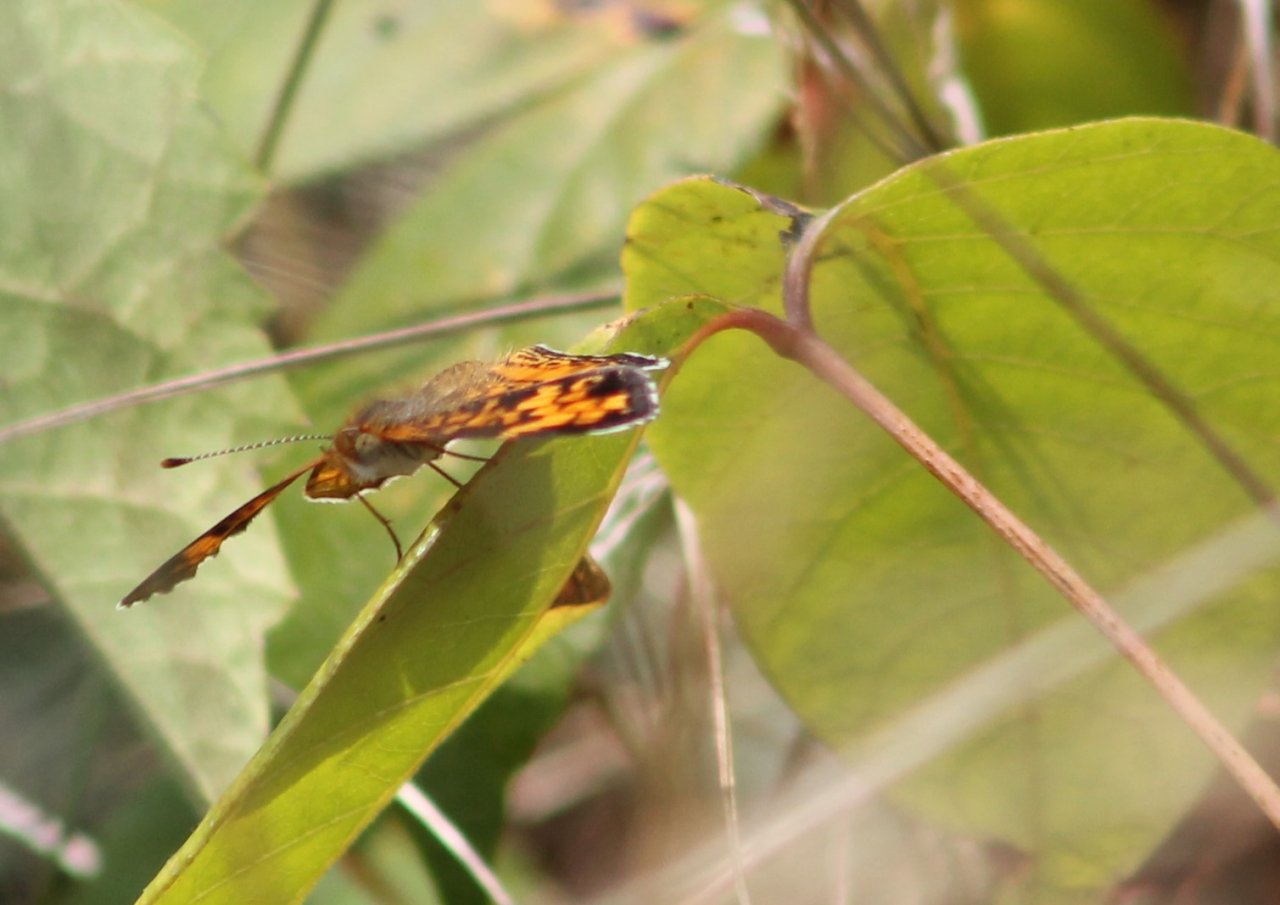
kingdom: Animalia
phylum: Arthropoda
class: Insecta
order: Lepidoptera
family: Nymphalidae
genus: Phyciodes
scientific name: Phyciodes
